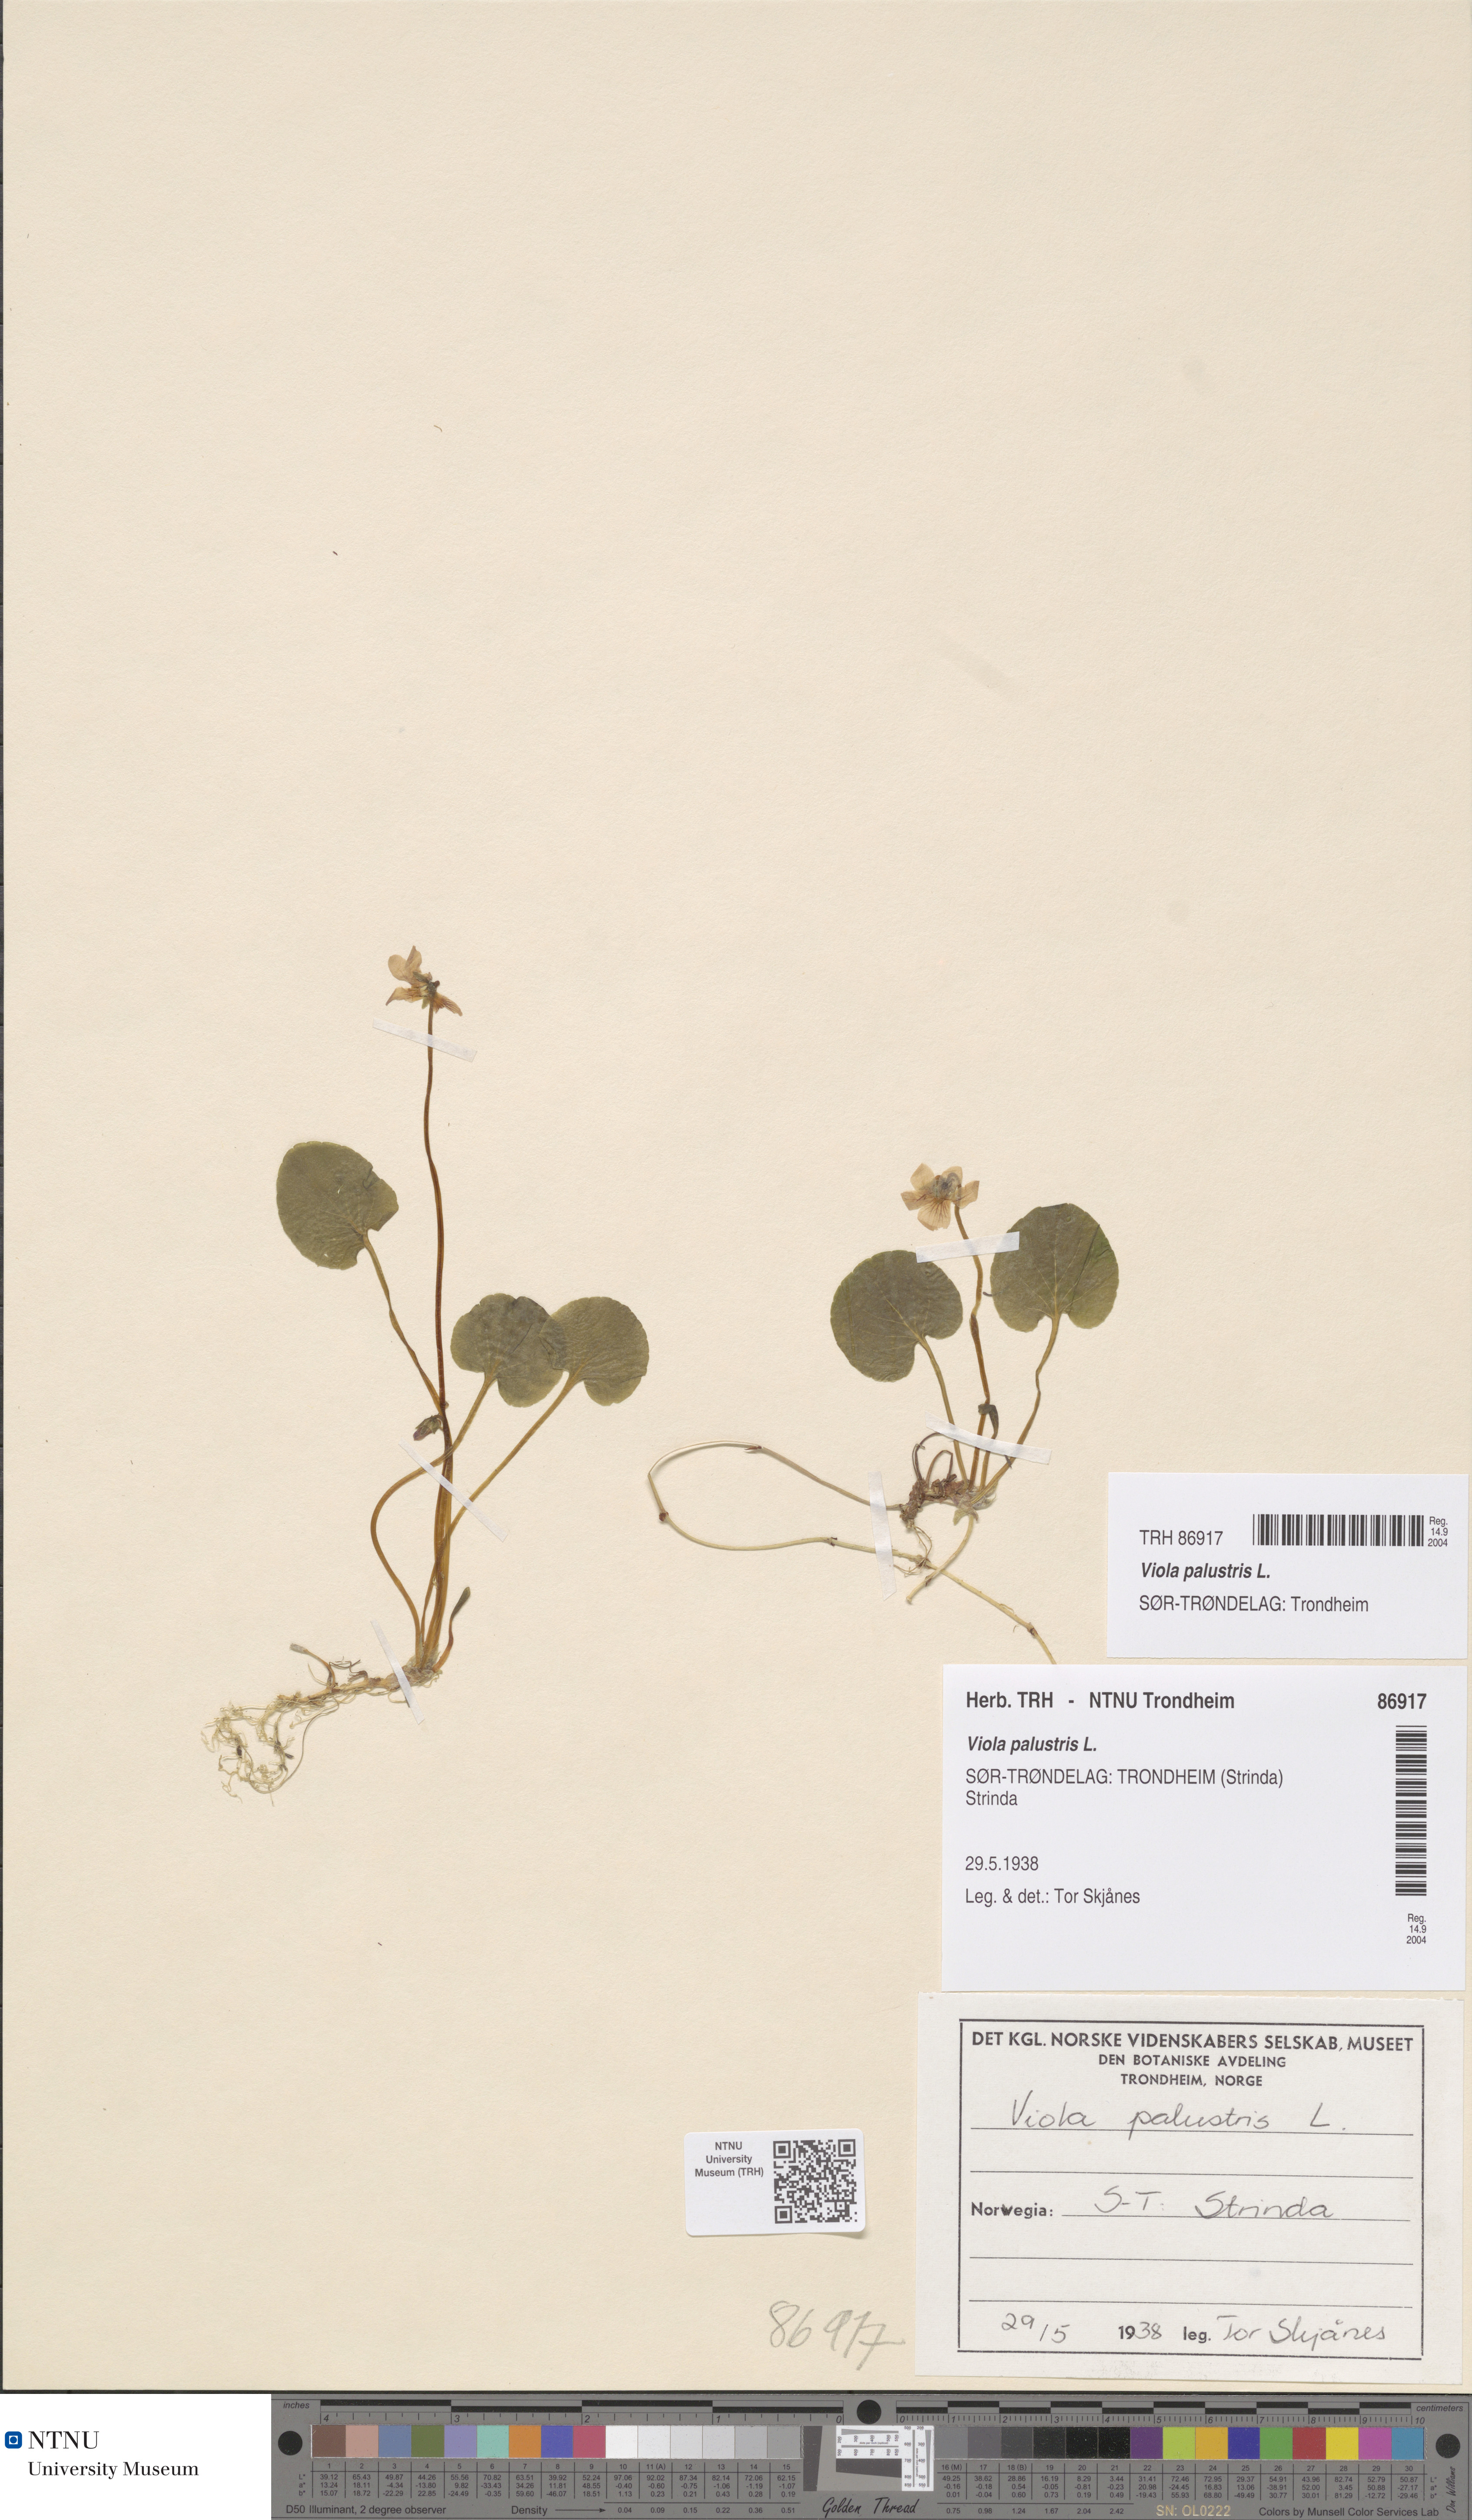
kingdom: Plantae
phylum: Tracheophyta
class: Magnoliopsida
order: Malpighiales
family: Violaceae
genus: Viola
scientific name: Viola palustris
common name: Marsh violet
